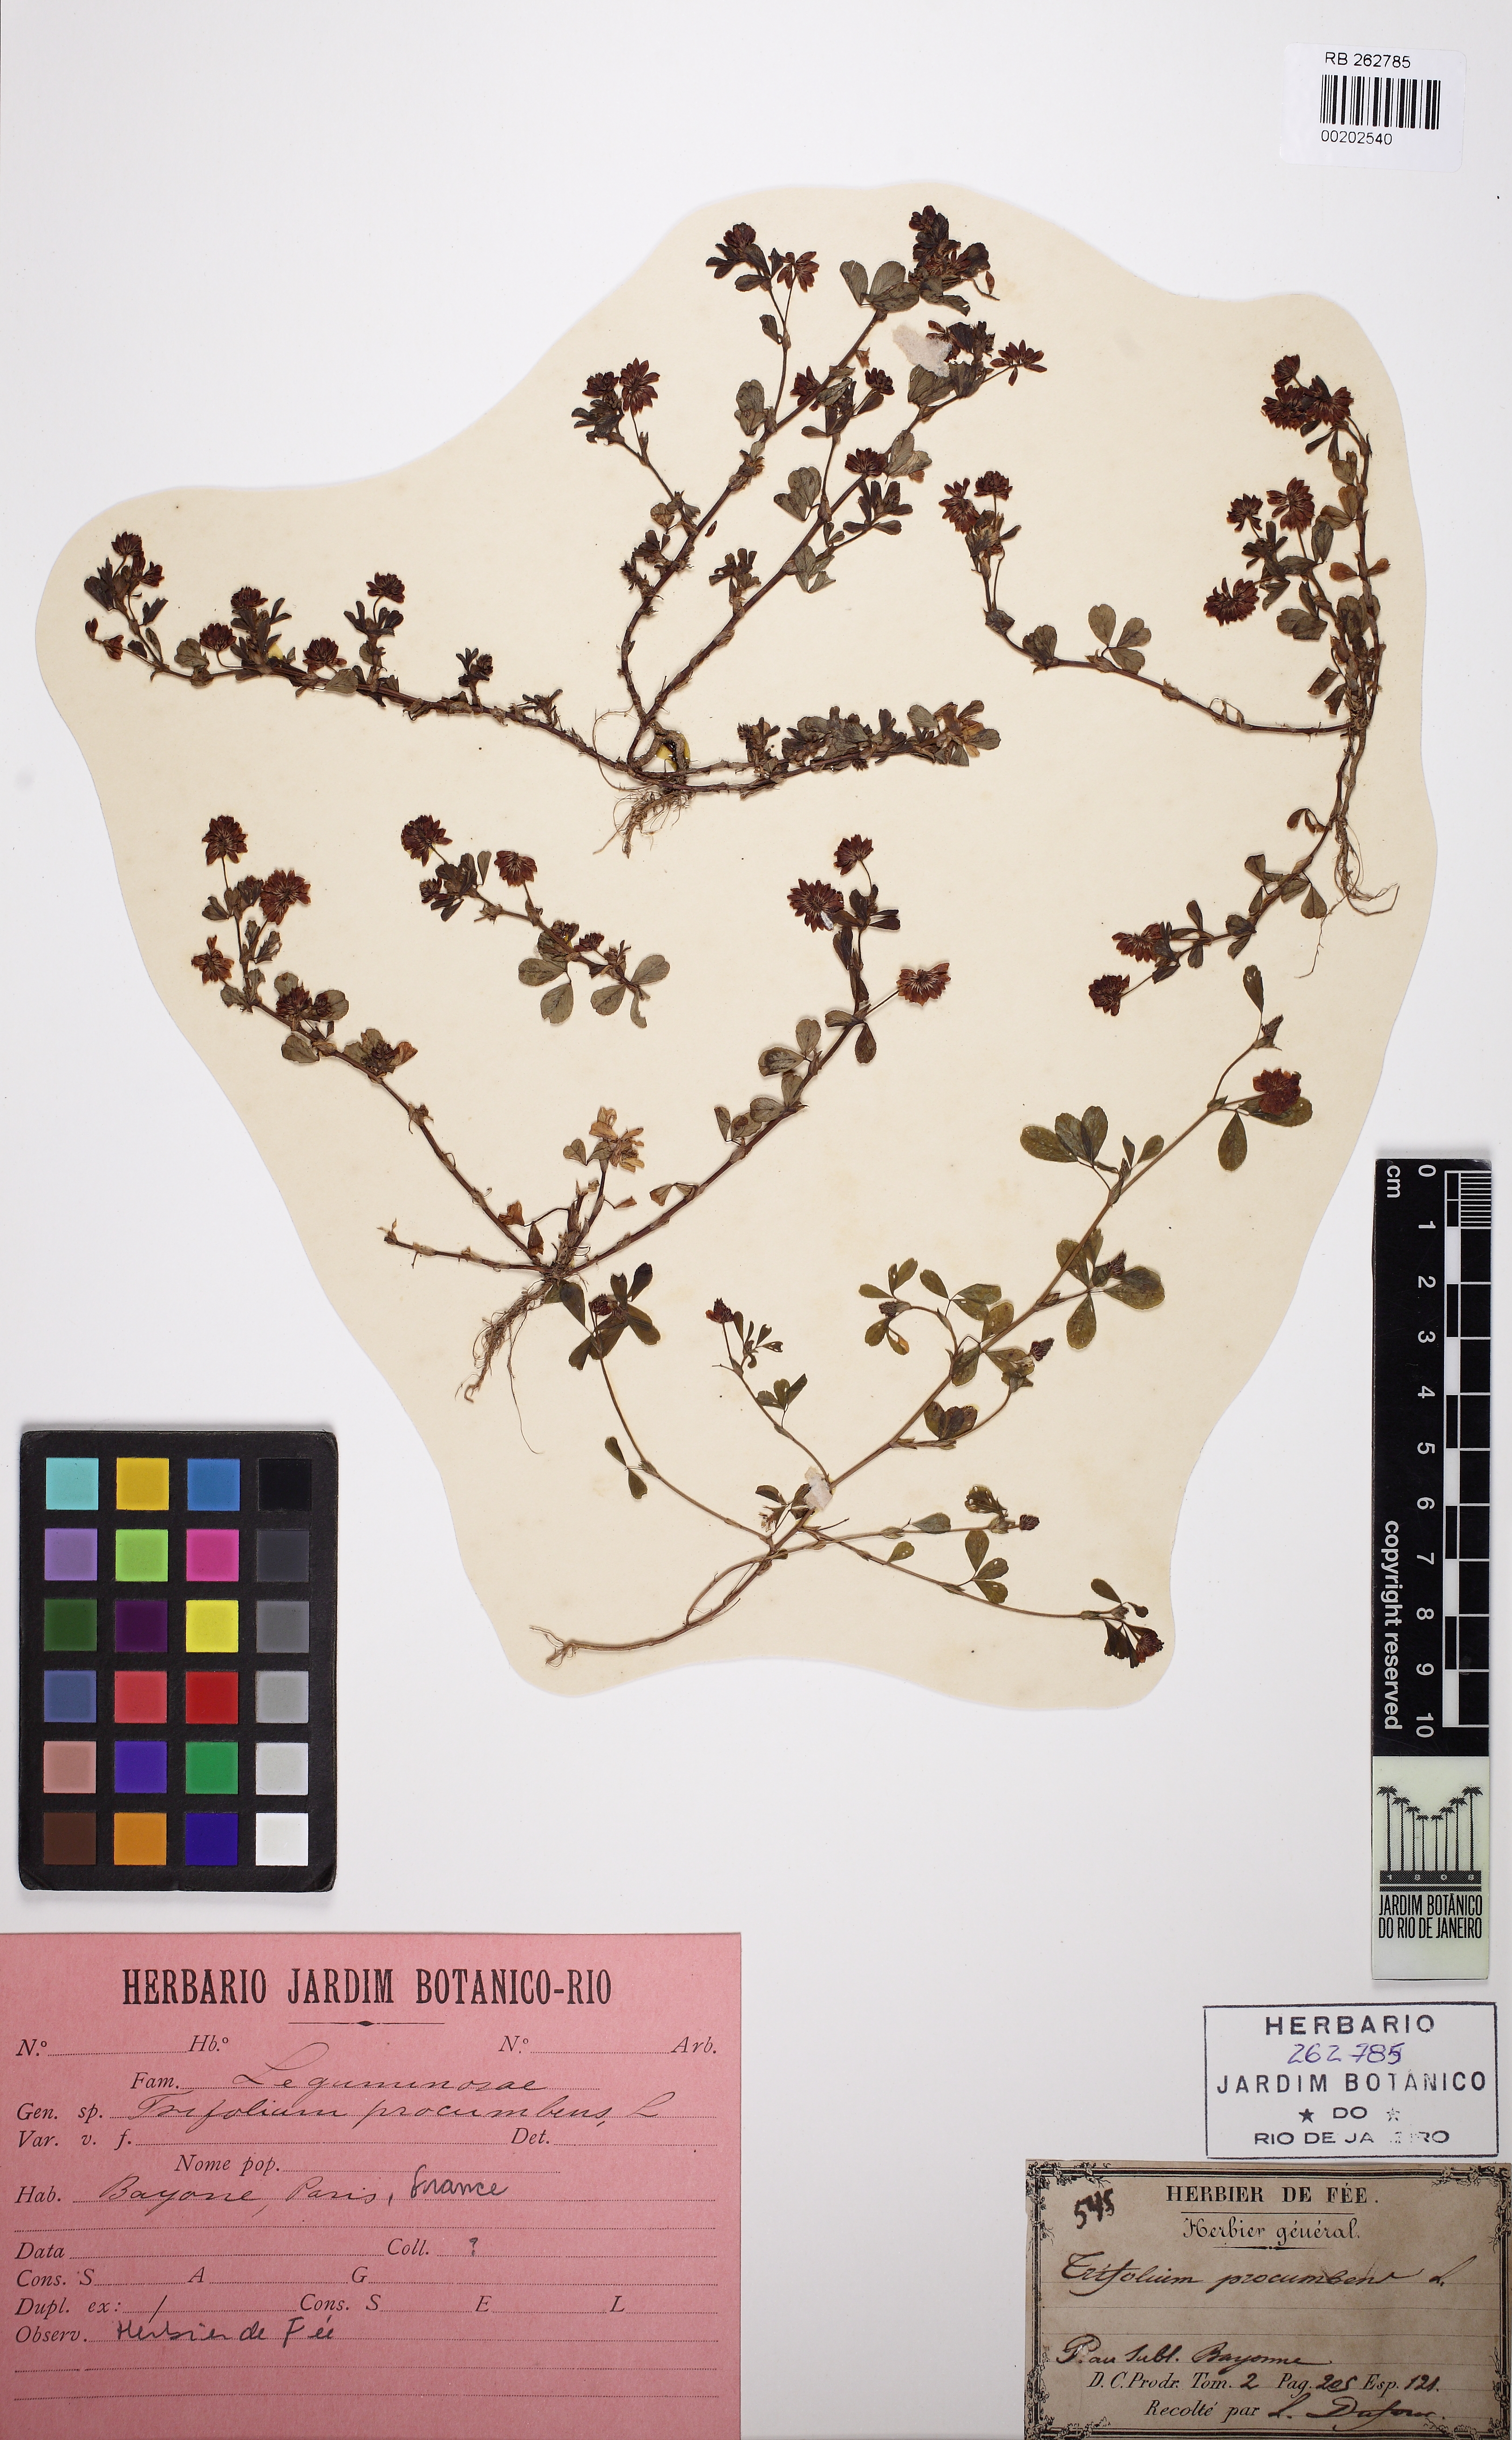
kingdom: Plantae
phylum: Tracheophyta
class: Magnoliopsida
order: Fabales
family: Fabaceae
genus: Trifolium
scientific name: Trifolium campestre
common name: Field clover
